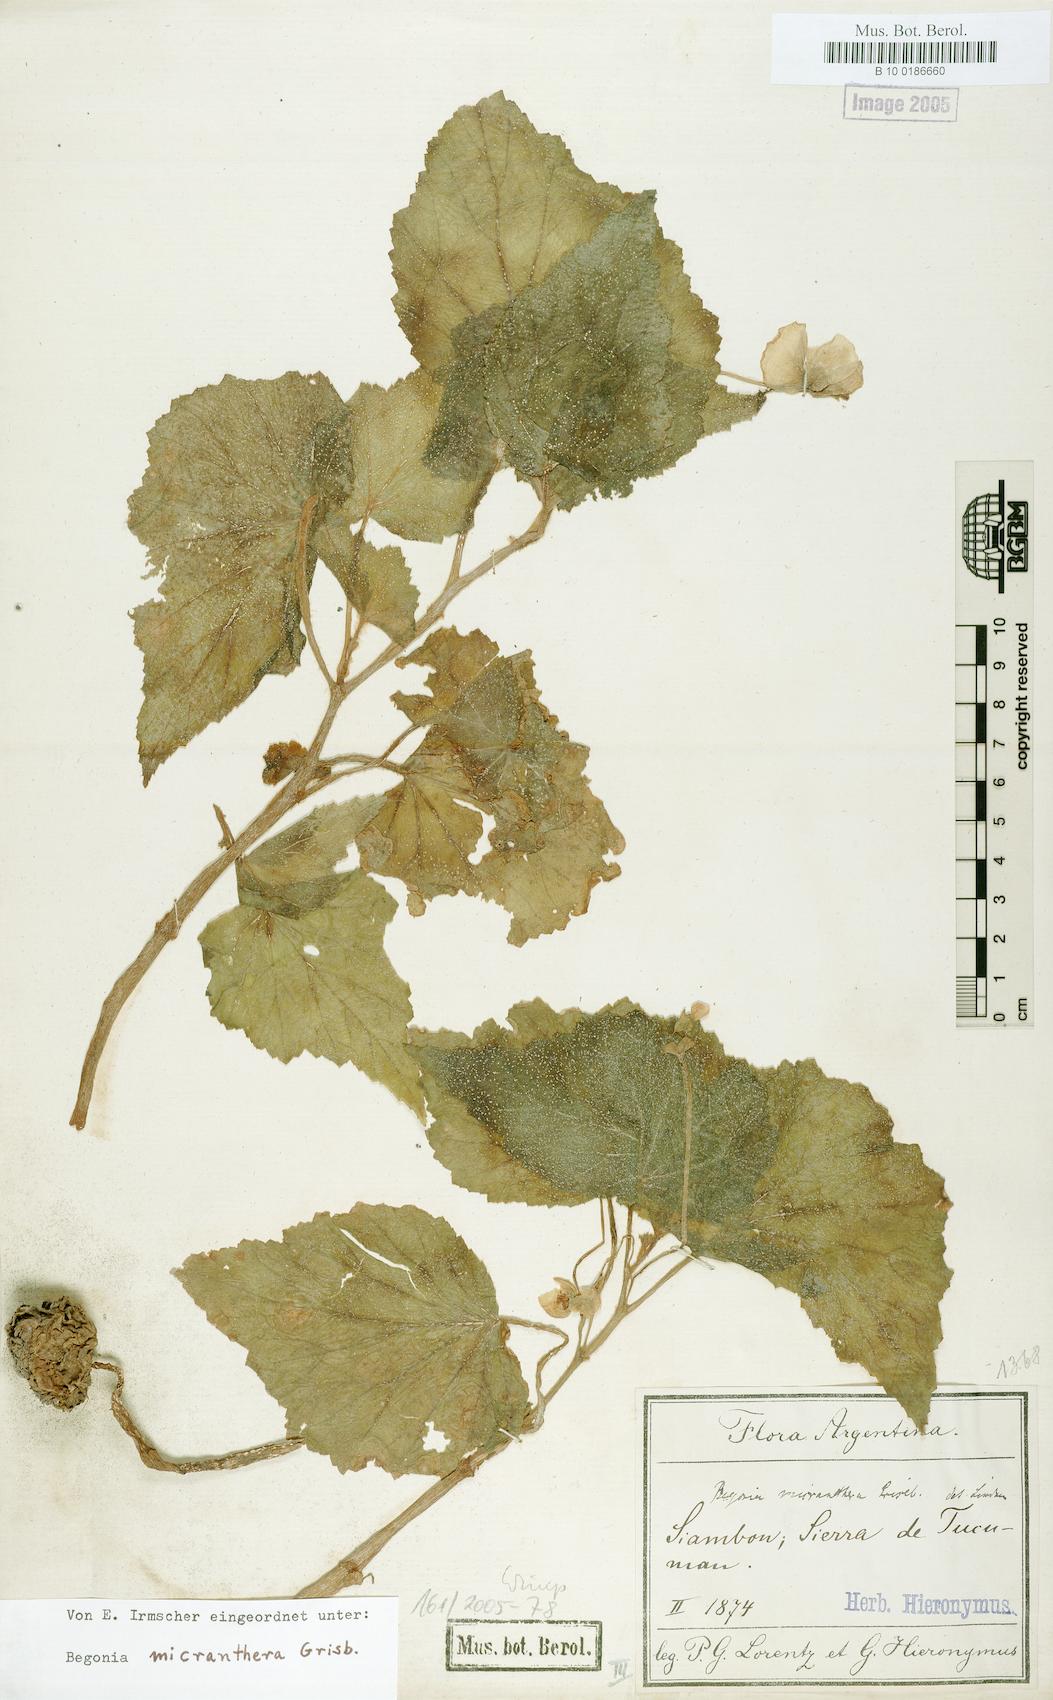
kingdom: Plantae
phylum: Tracheophyta
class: Magnoliopsida
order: Cucurbitales
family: Begoniaceae
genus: Begonia
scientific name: Begonia micranthera
